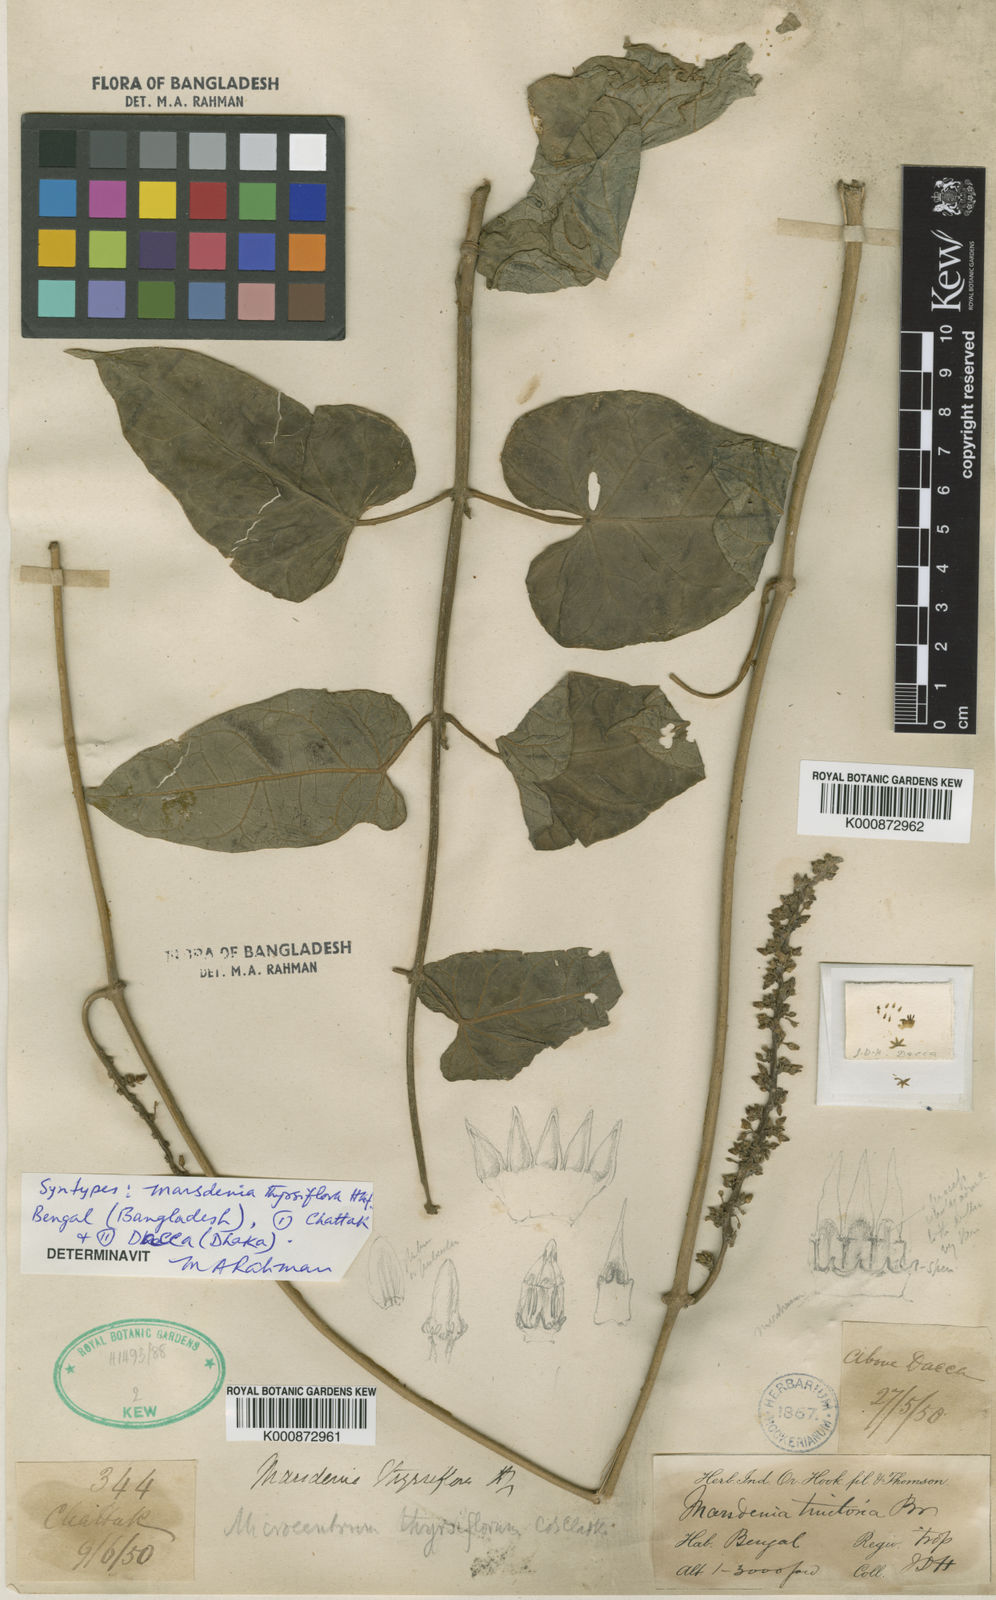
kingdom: Plantae
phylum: Tracheophyta
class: Magnoliopsida
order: Gentianales
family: Apocynaceae
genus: Dischidanthus
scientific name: Dischidanthus thyrsiflorus
